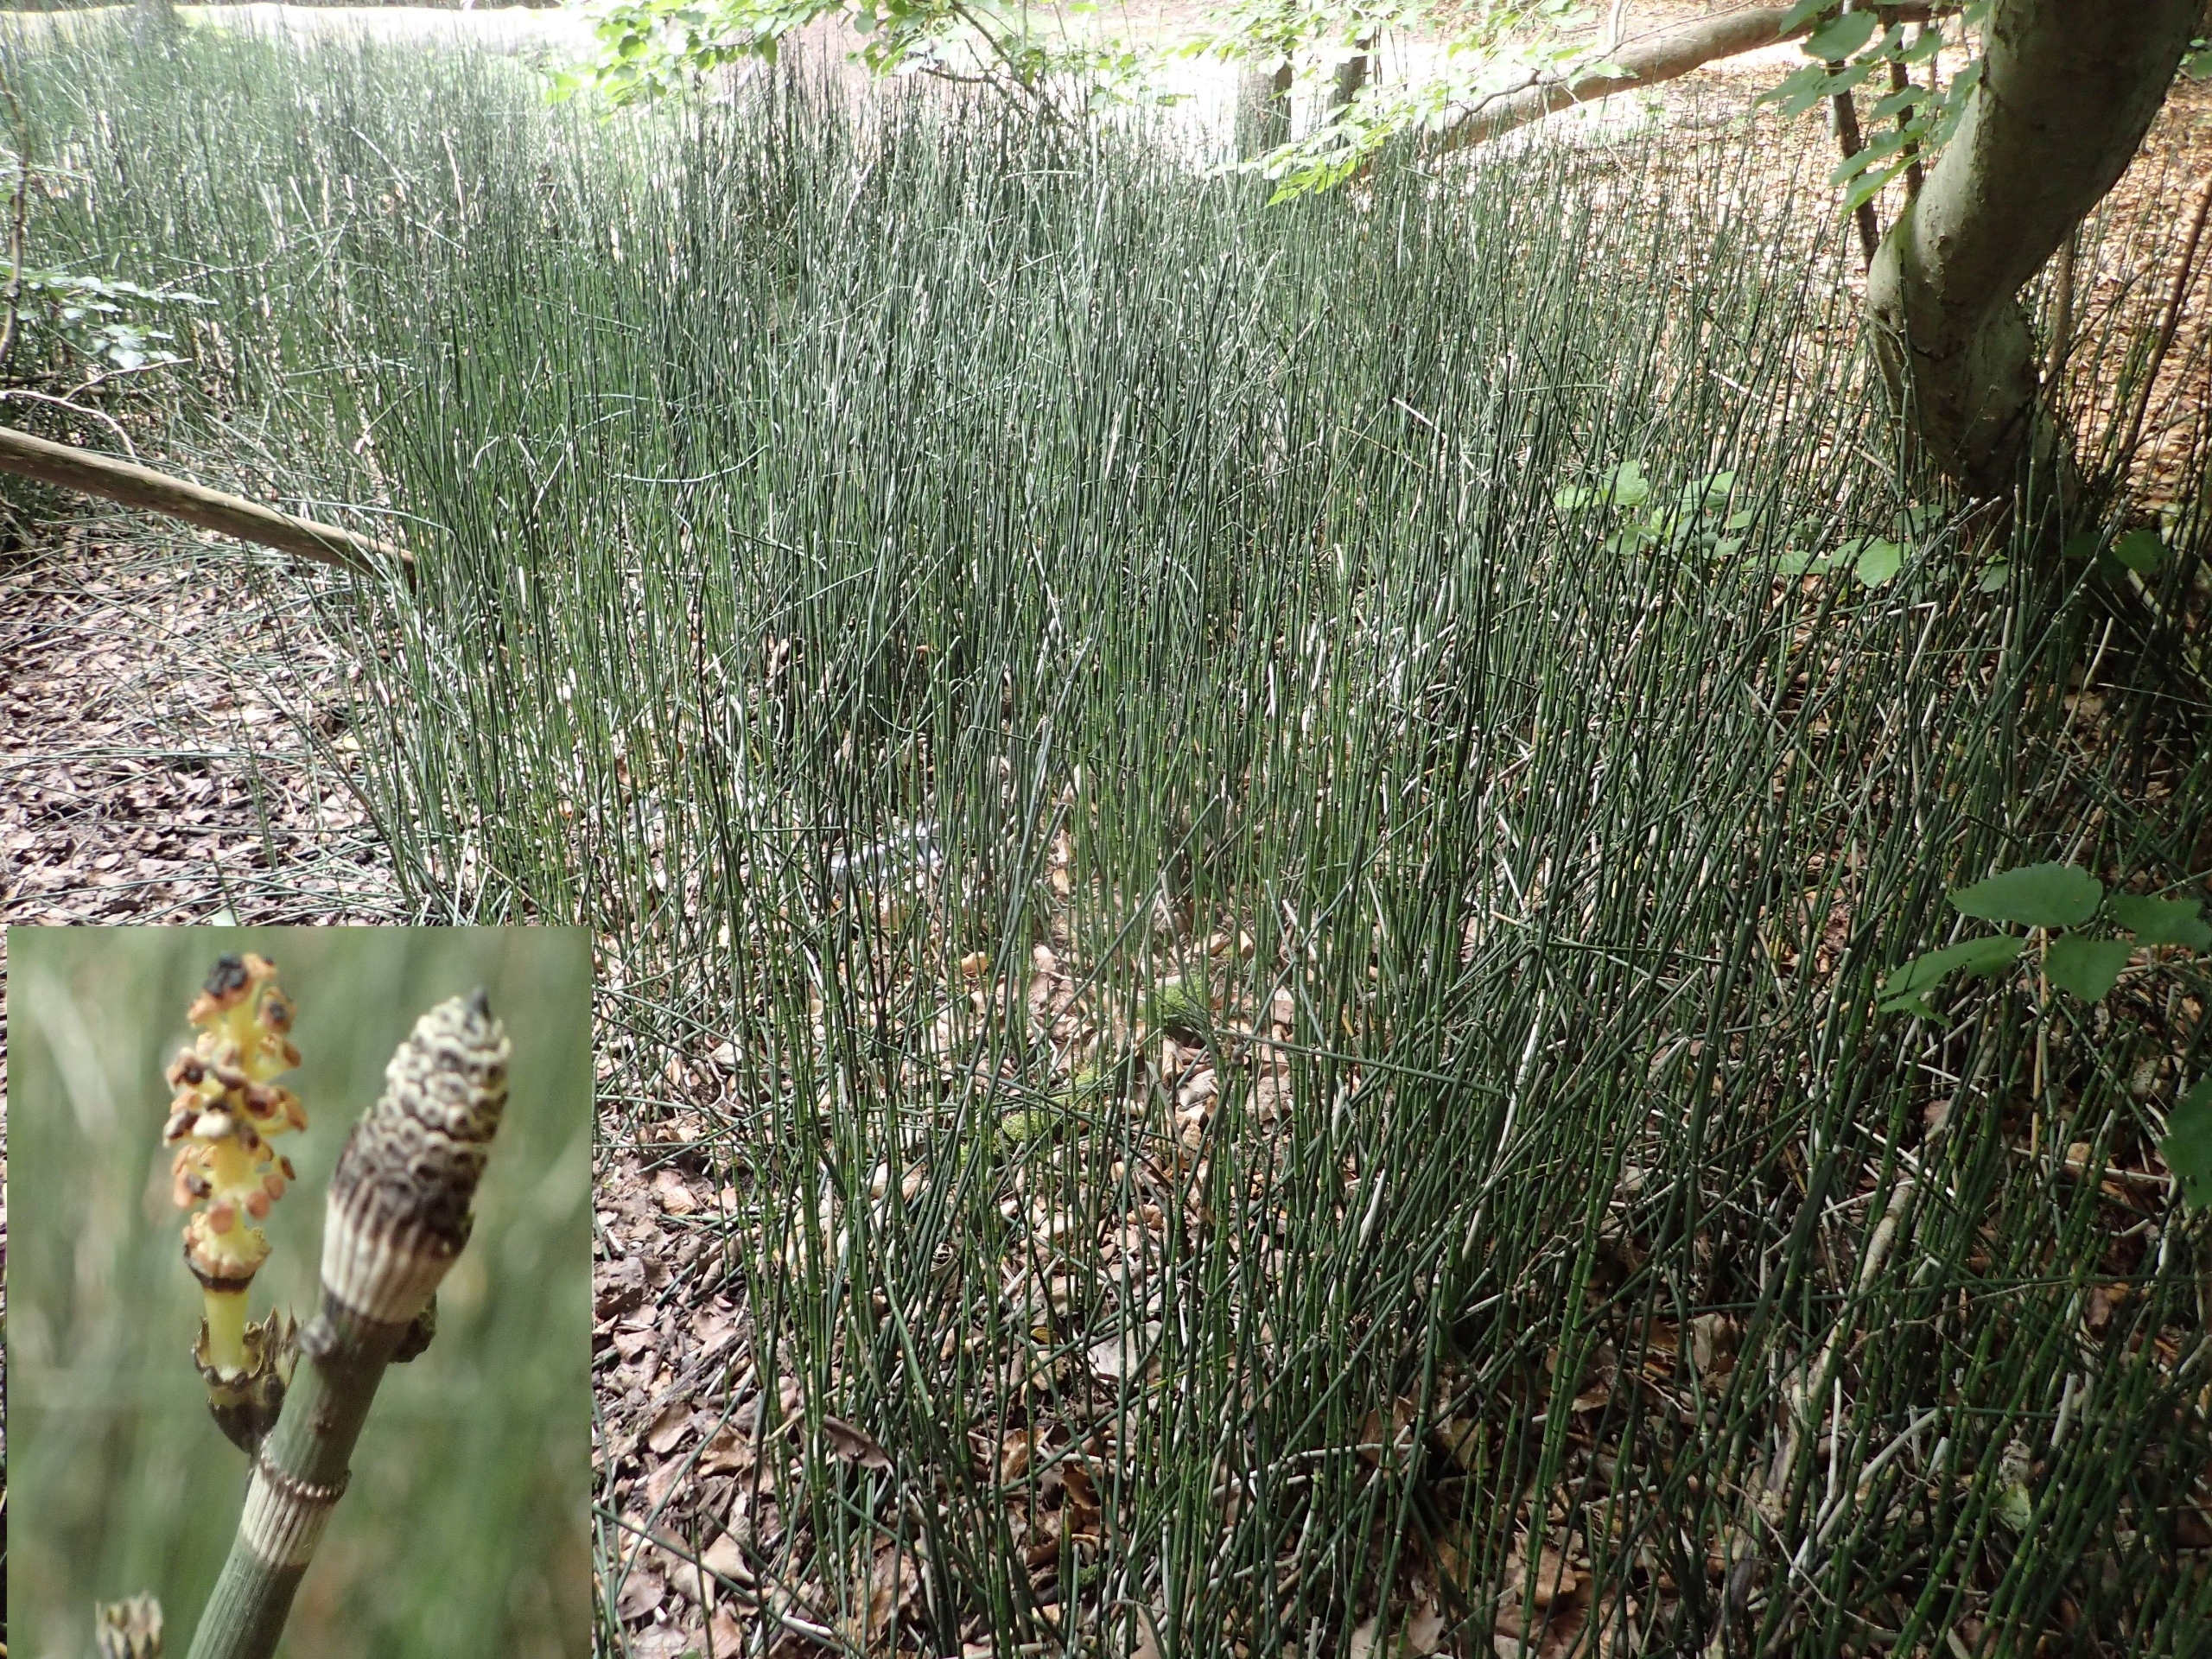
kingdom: Plantae
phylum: Tracheophyta
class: Polypodiopsida
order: Equisetales
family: Equisetaceae
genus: Equisetum
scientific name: Equisetum hyemale
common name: Skavgræs
